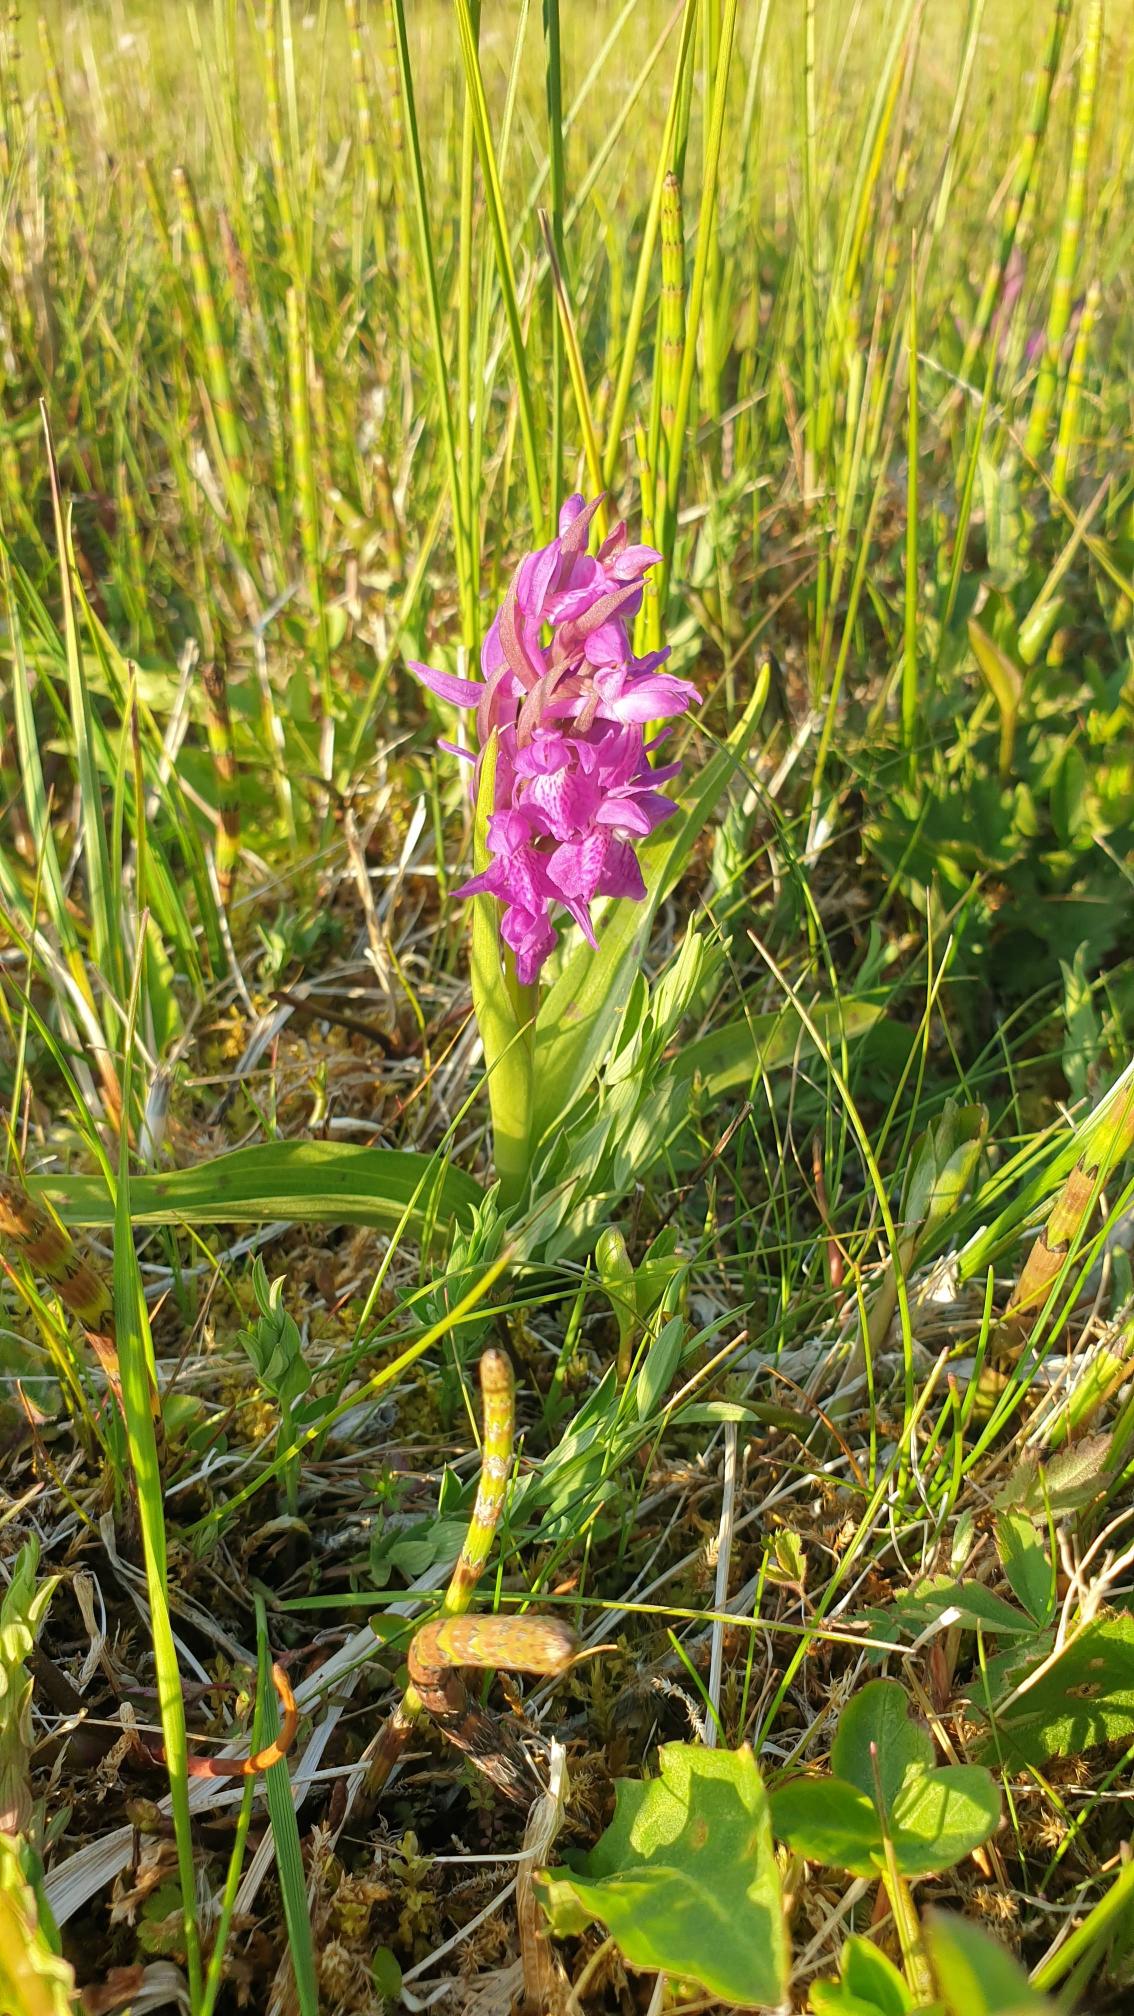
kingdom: Plantae
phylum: Tracheophyta
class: Liliopsida
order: Asparagales
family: Orchidaceae
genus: Dactylorhiza
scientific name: Dactylorhiza majalis
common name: Maj-gøgeurt
